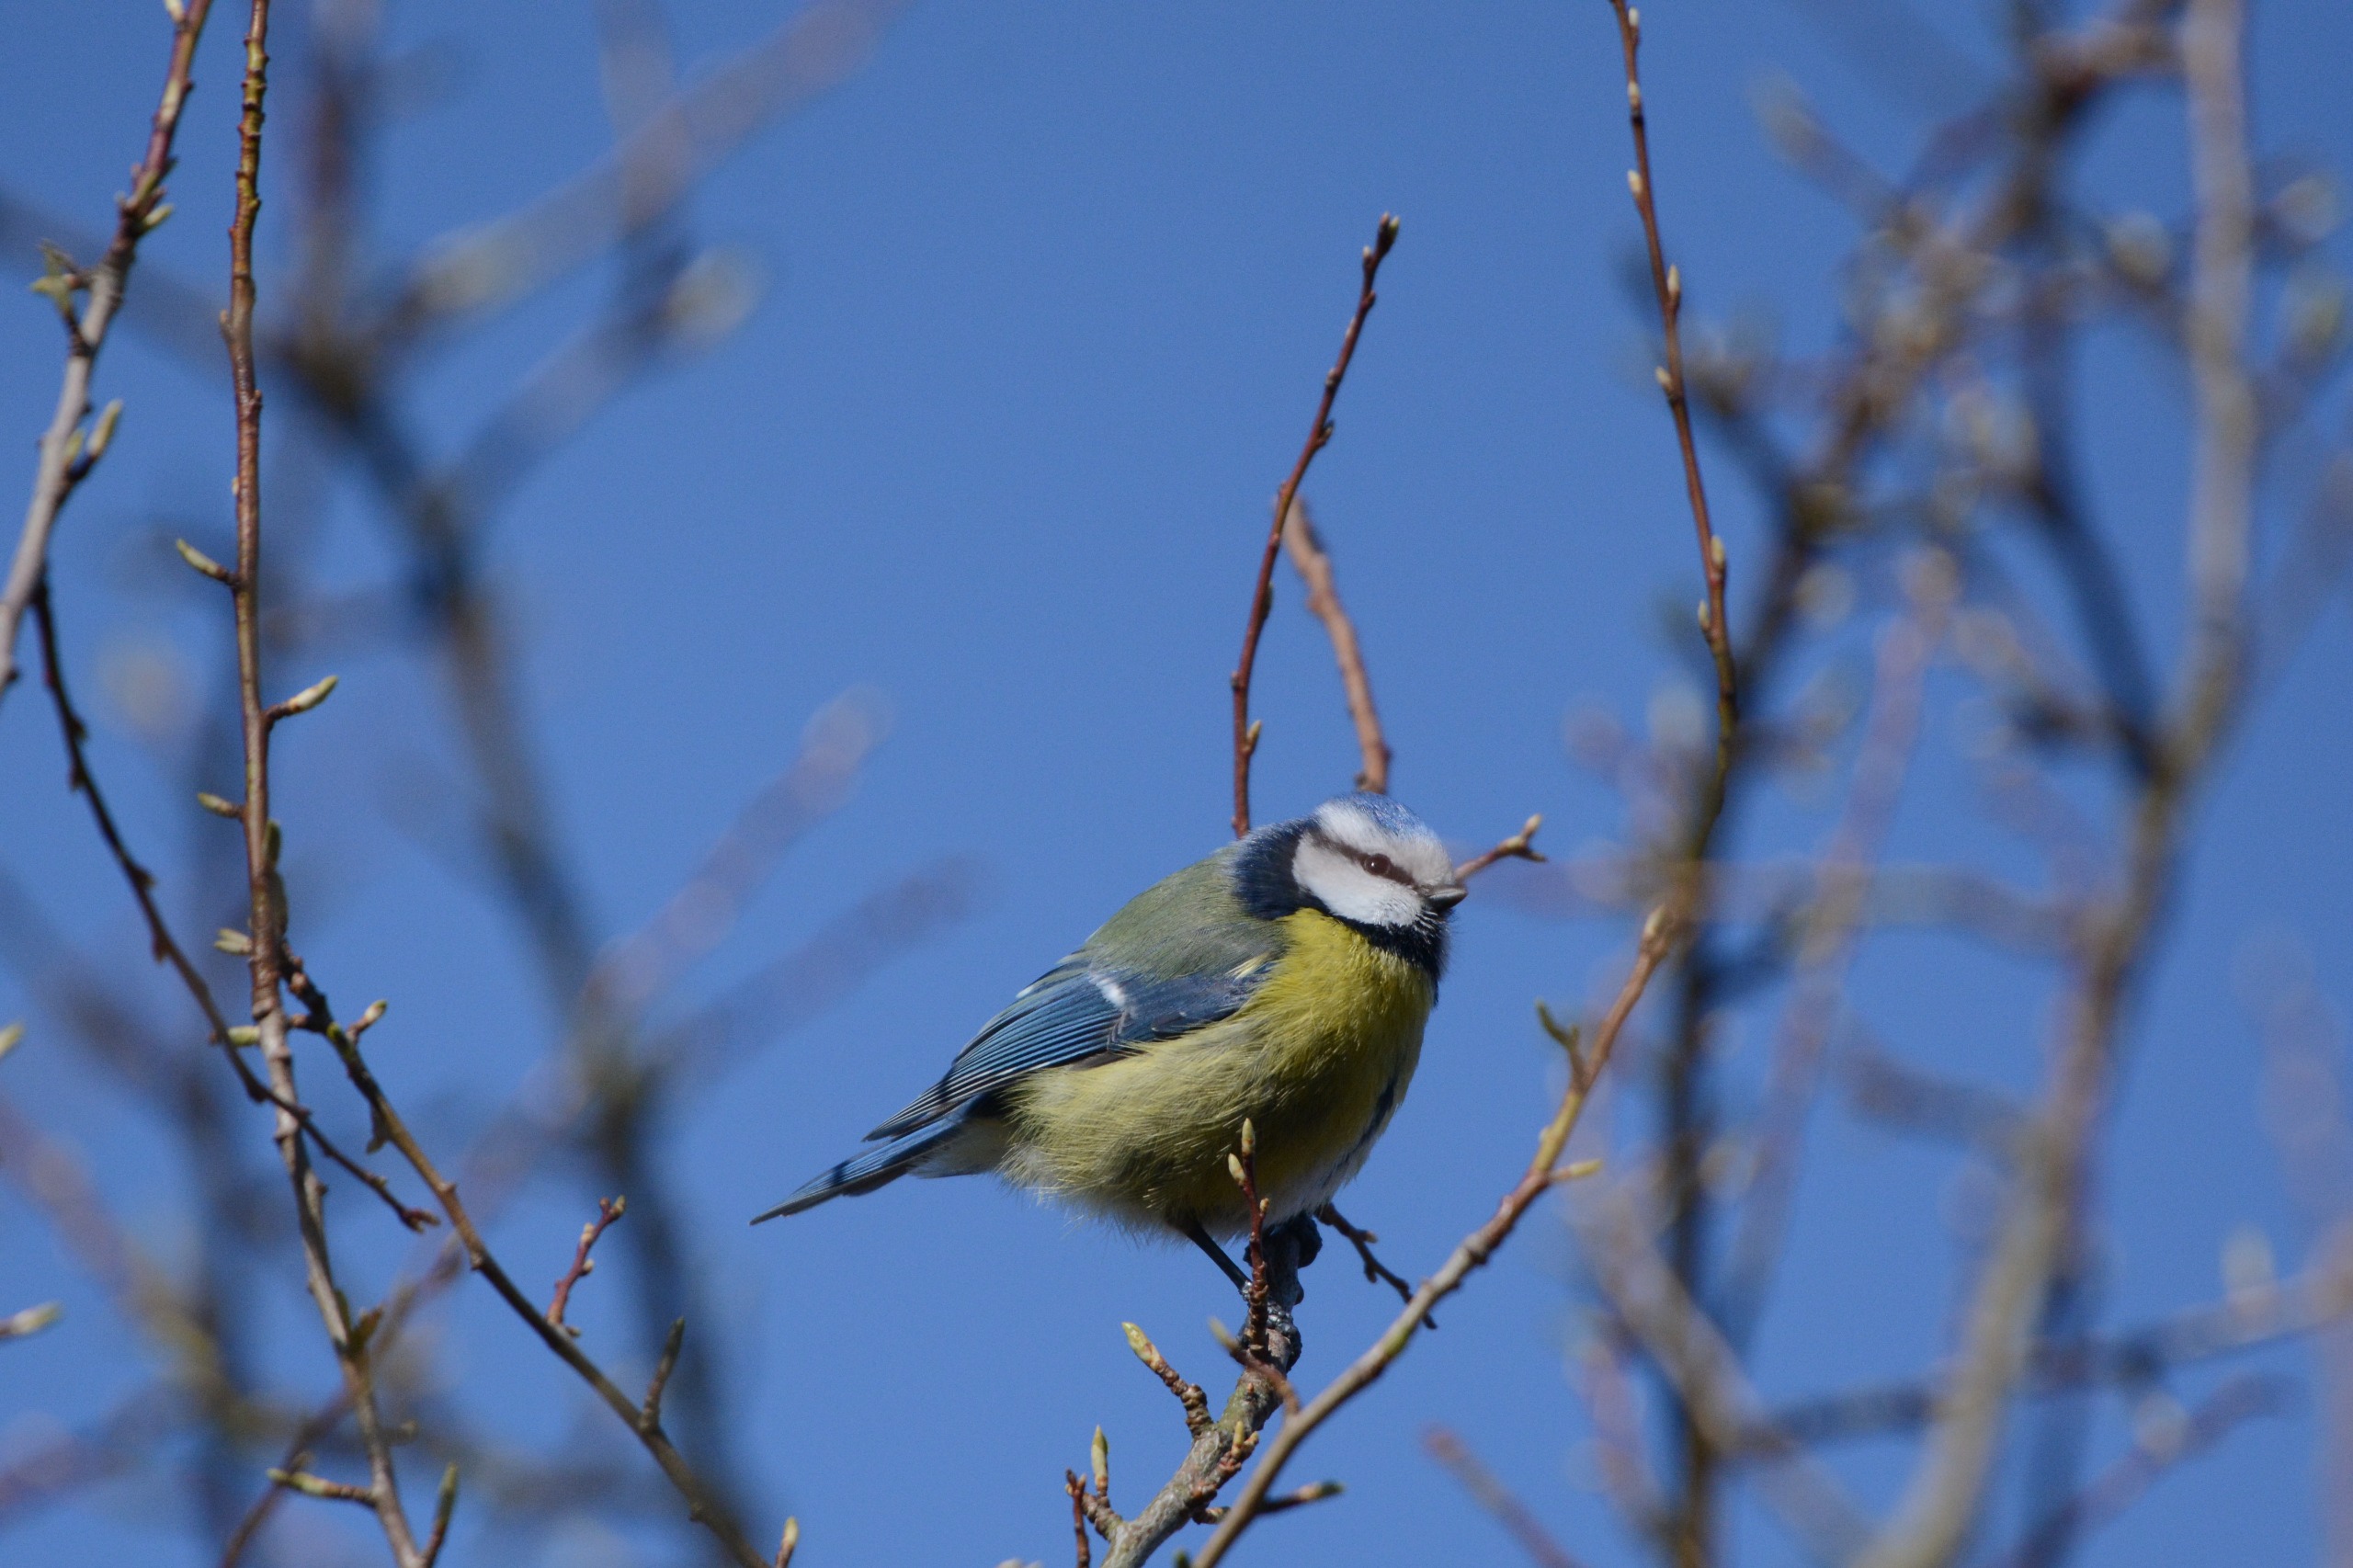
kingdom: Animalia
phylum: Chordata
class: Aves
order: Passeriformes
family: Paridae
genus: Cyanistes
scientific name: Cyanistes caeruleus
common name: Blåmejse
